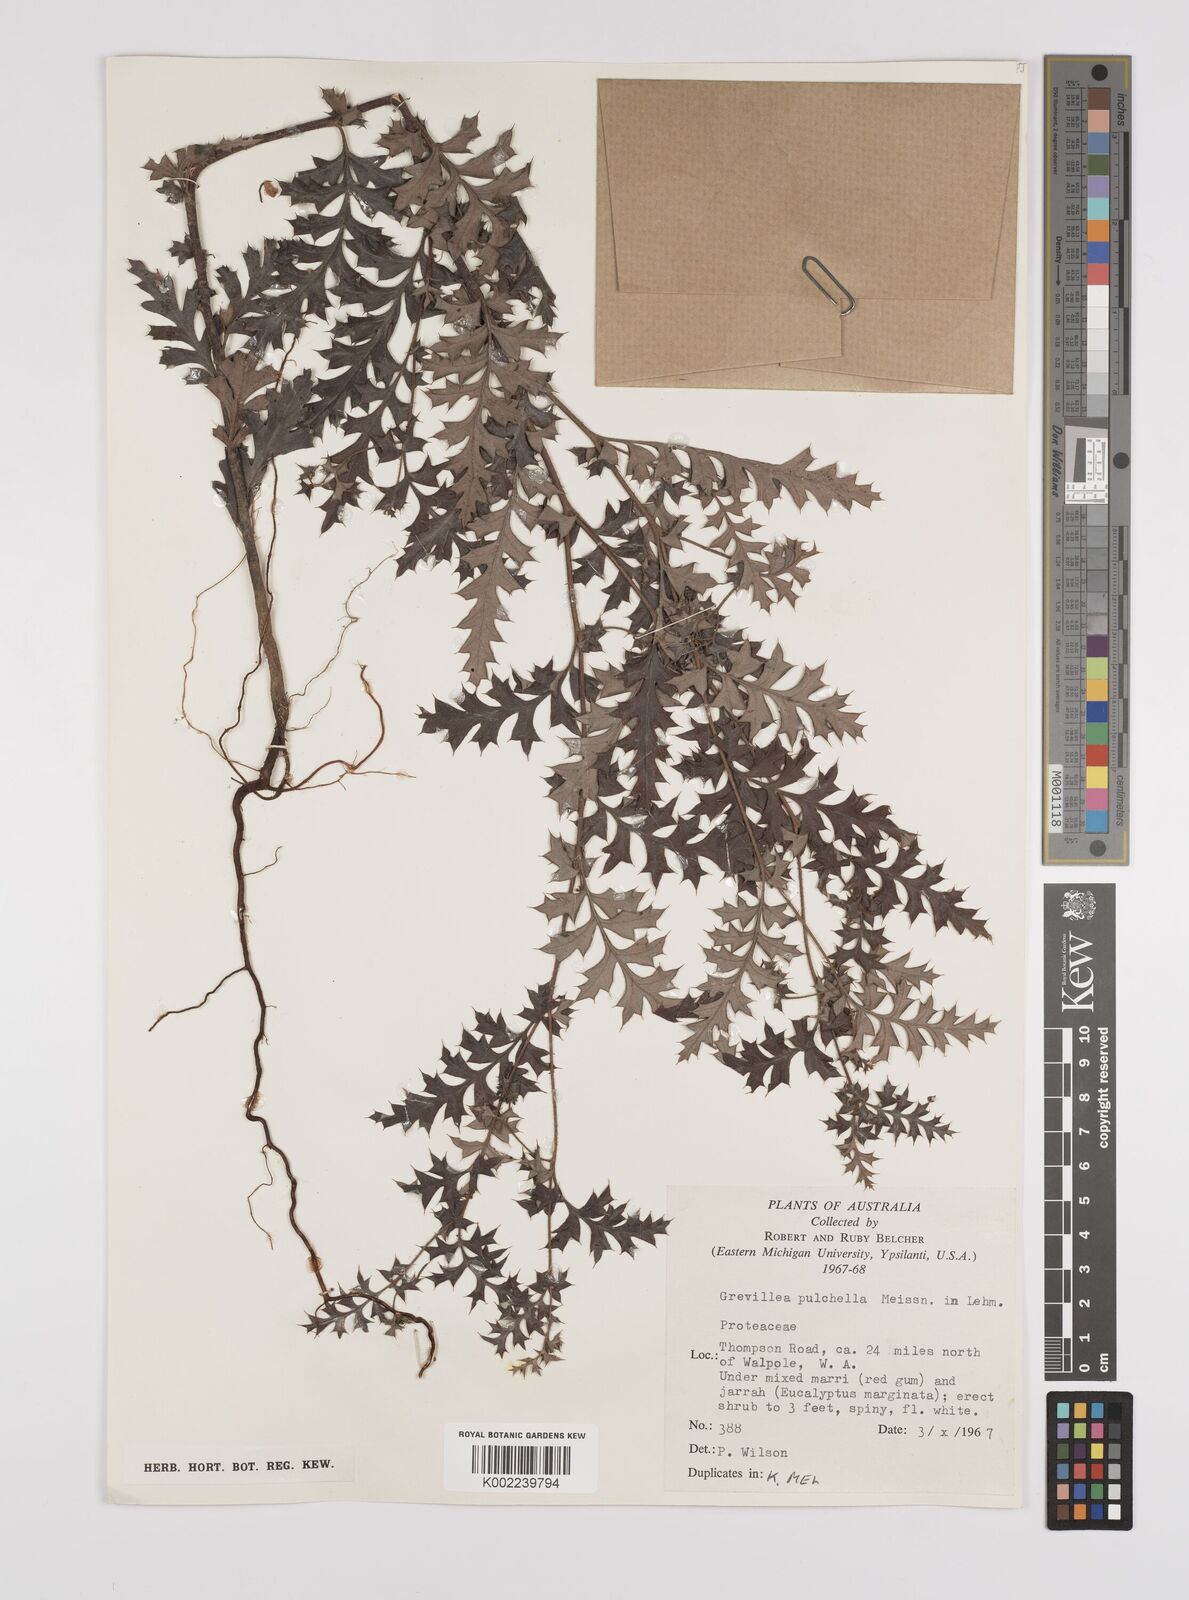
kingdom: Plantae
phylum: Tracheophyta
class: Magnoliopsida
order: Proteales
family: Proteaceae
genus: Grevillea
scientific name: Grevillea pulchella
